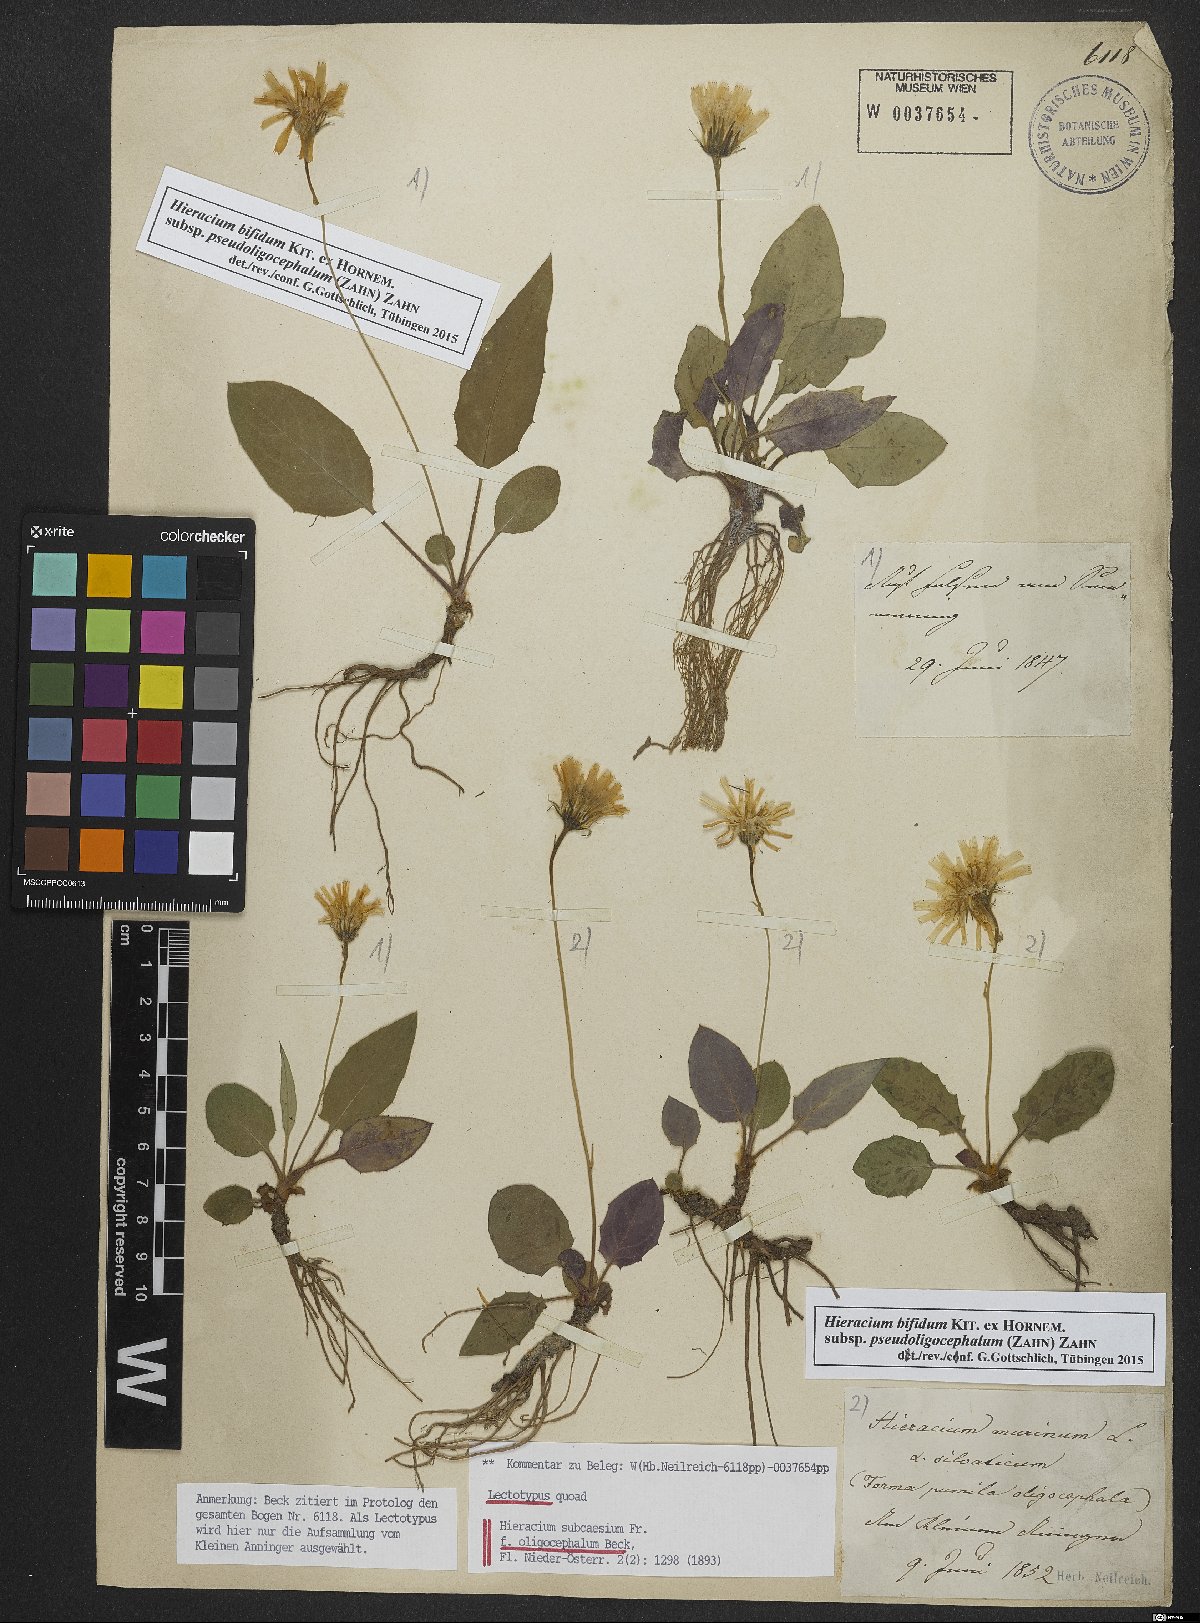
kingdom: Plantae
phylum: Tracheophyta
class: Magnoliopsida
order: Asterales
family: Asteraceae
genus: Hieracium
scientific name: Hieracium bifidum
